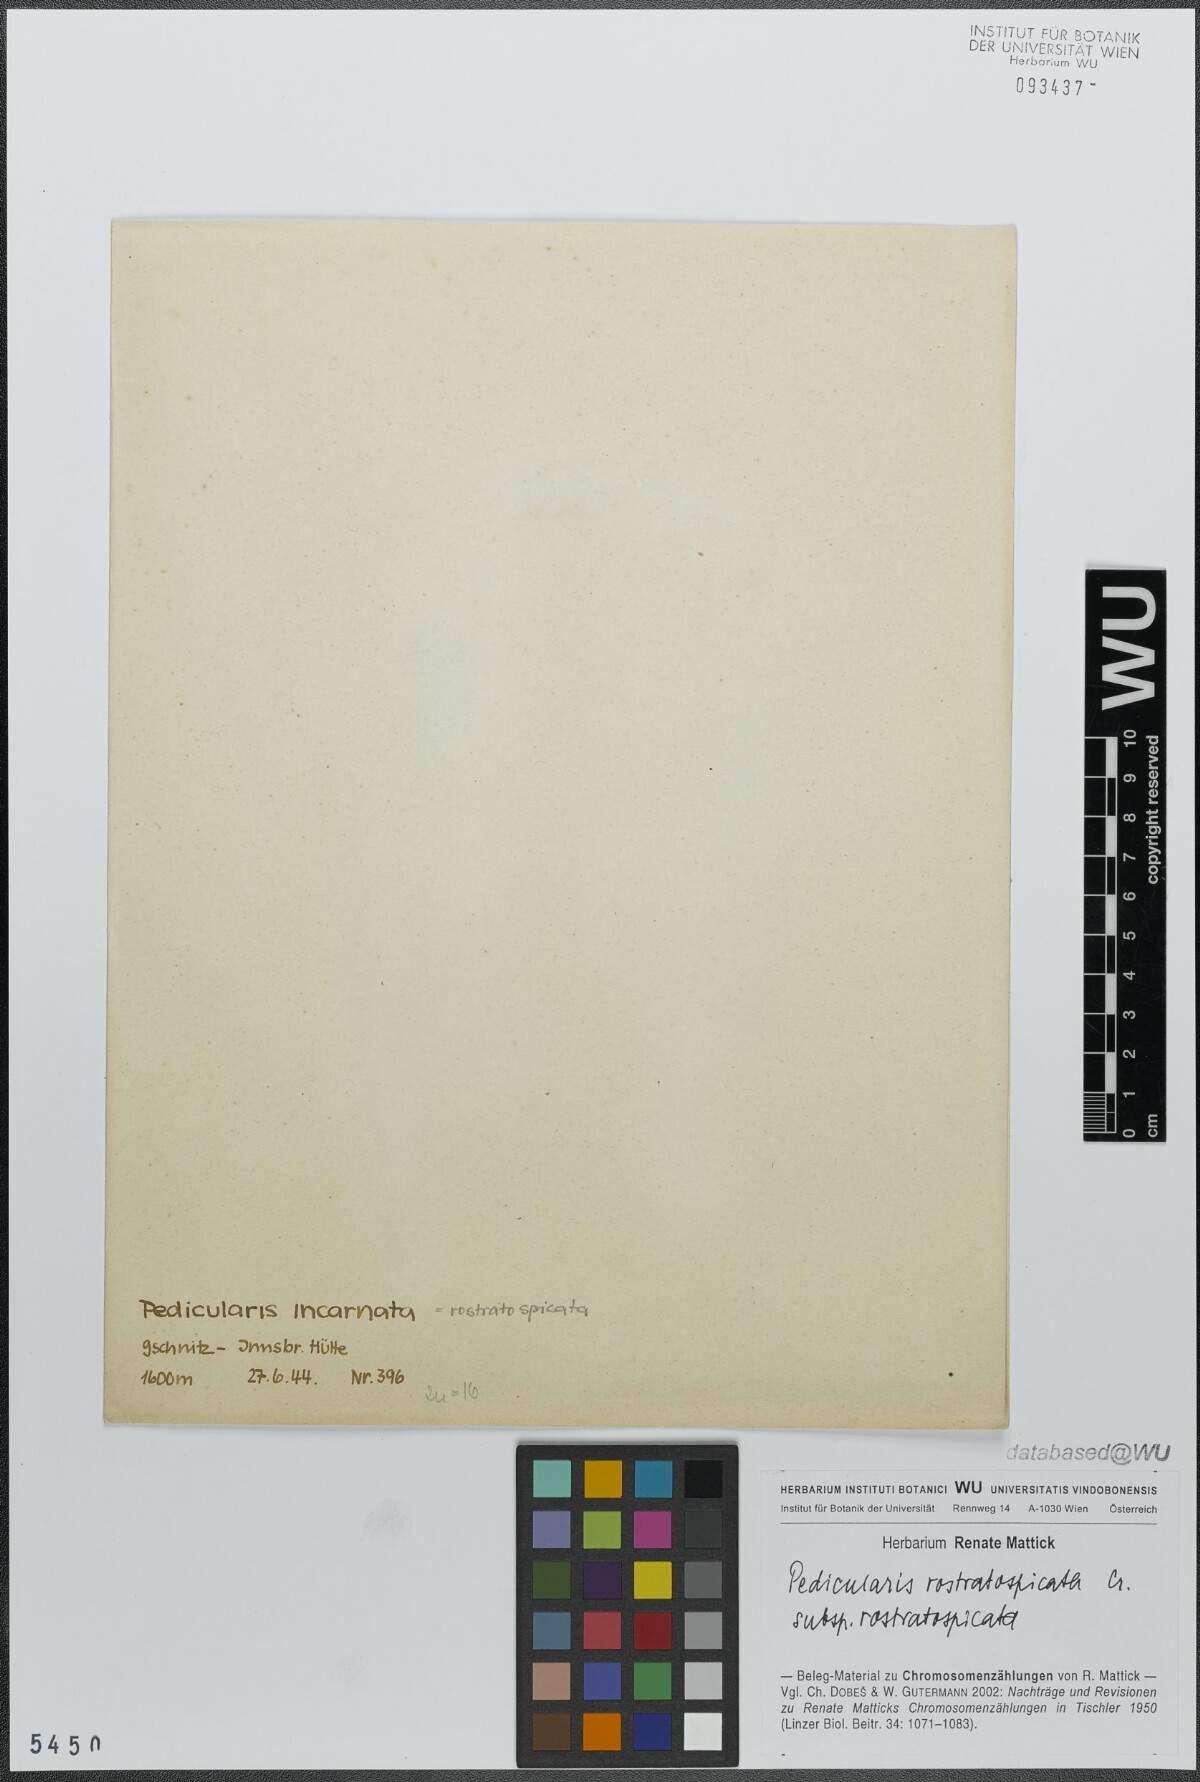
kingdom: Plantae
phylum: Tracheophyta
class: Magnoliopsida
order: Lamiales
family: Orobanchaceae
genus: Pedicularis
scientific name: Pedicularis rostratospicata
